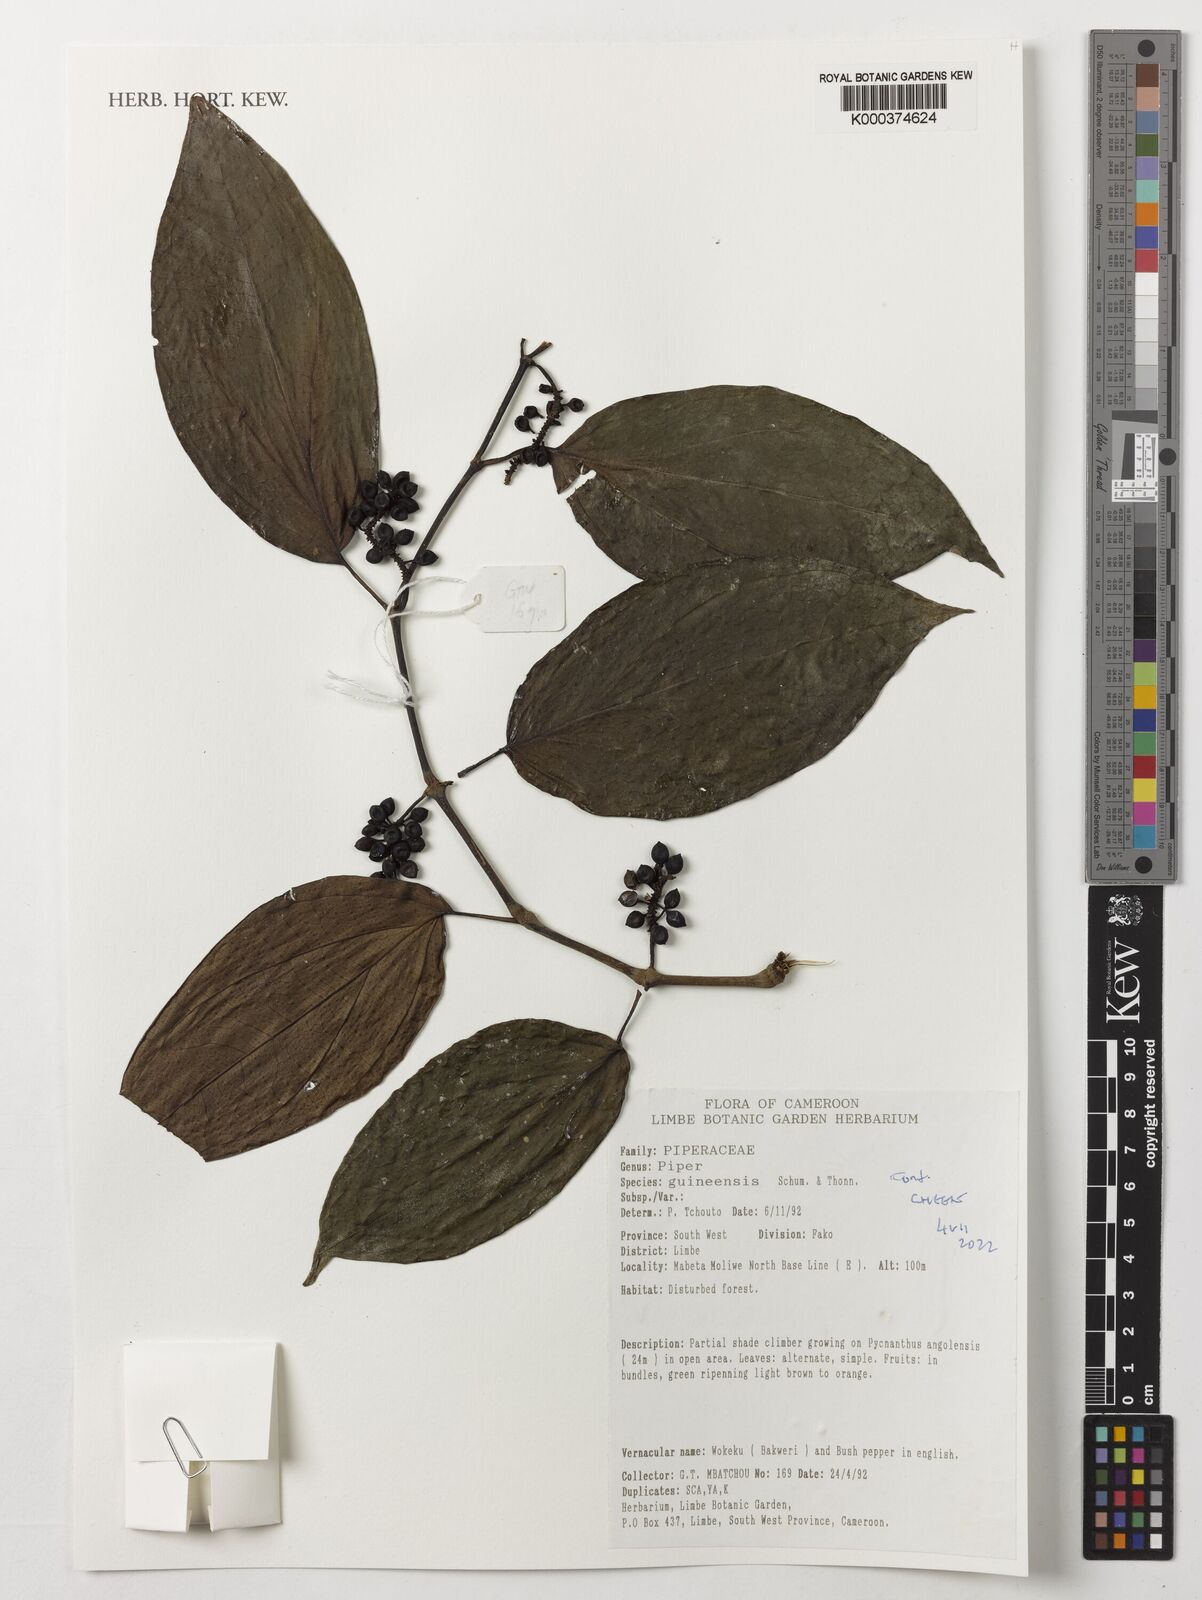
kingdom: Plantae
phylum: Tracheophyta
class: Magnoliopsida
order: Piperales
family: Piperaceae
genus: Piper
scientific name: Piper guineense
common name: Benin pepper
